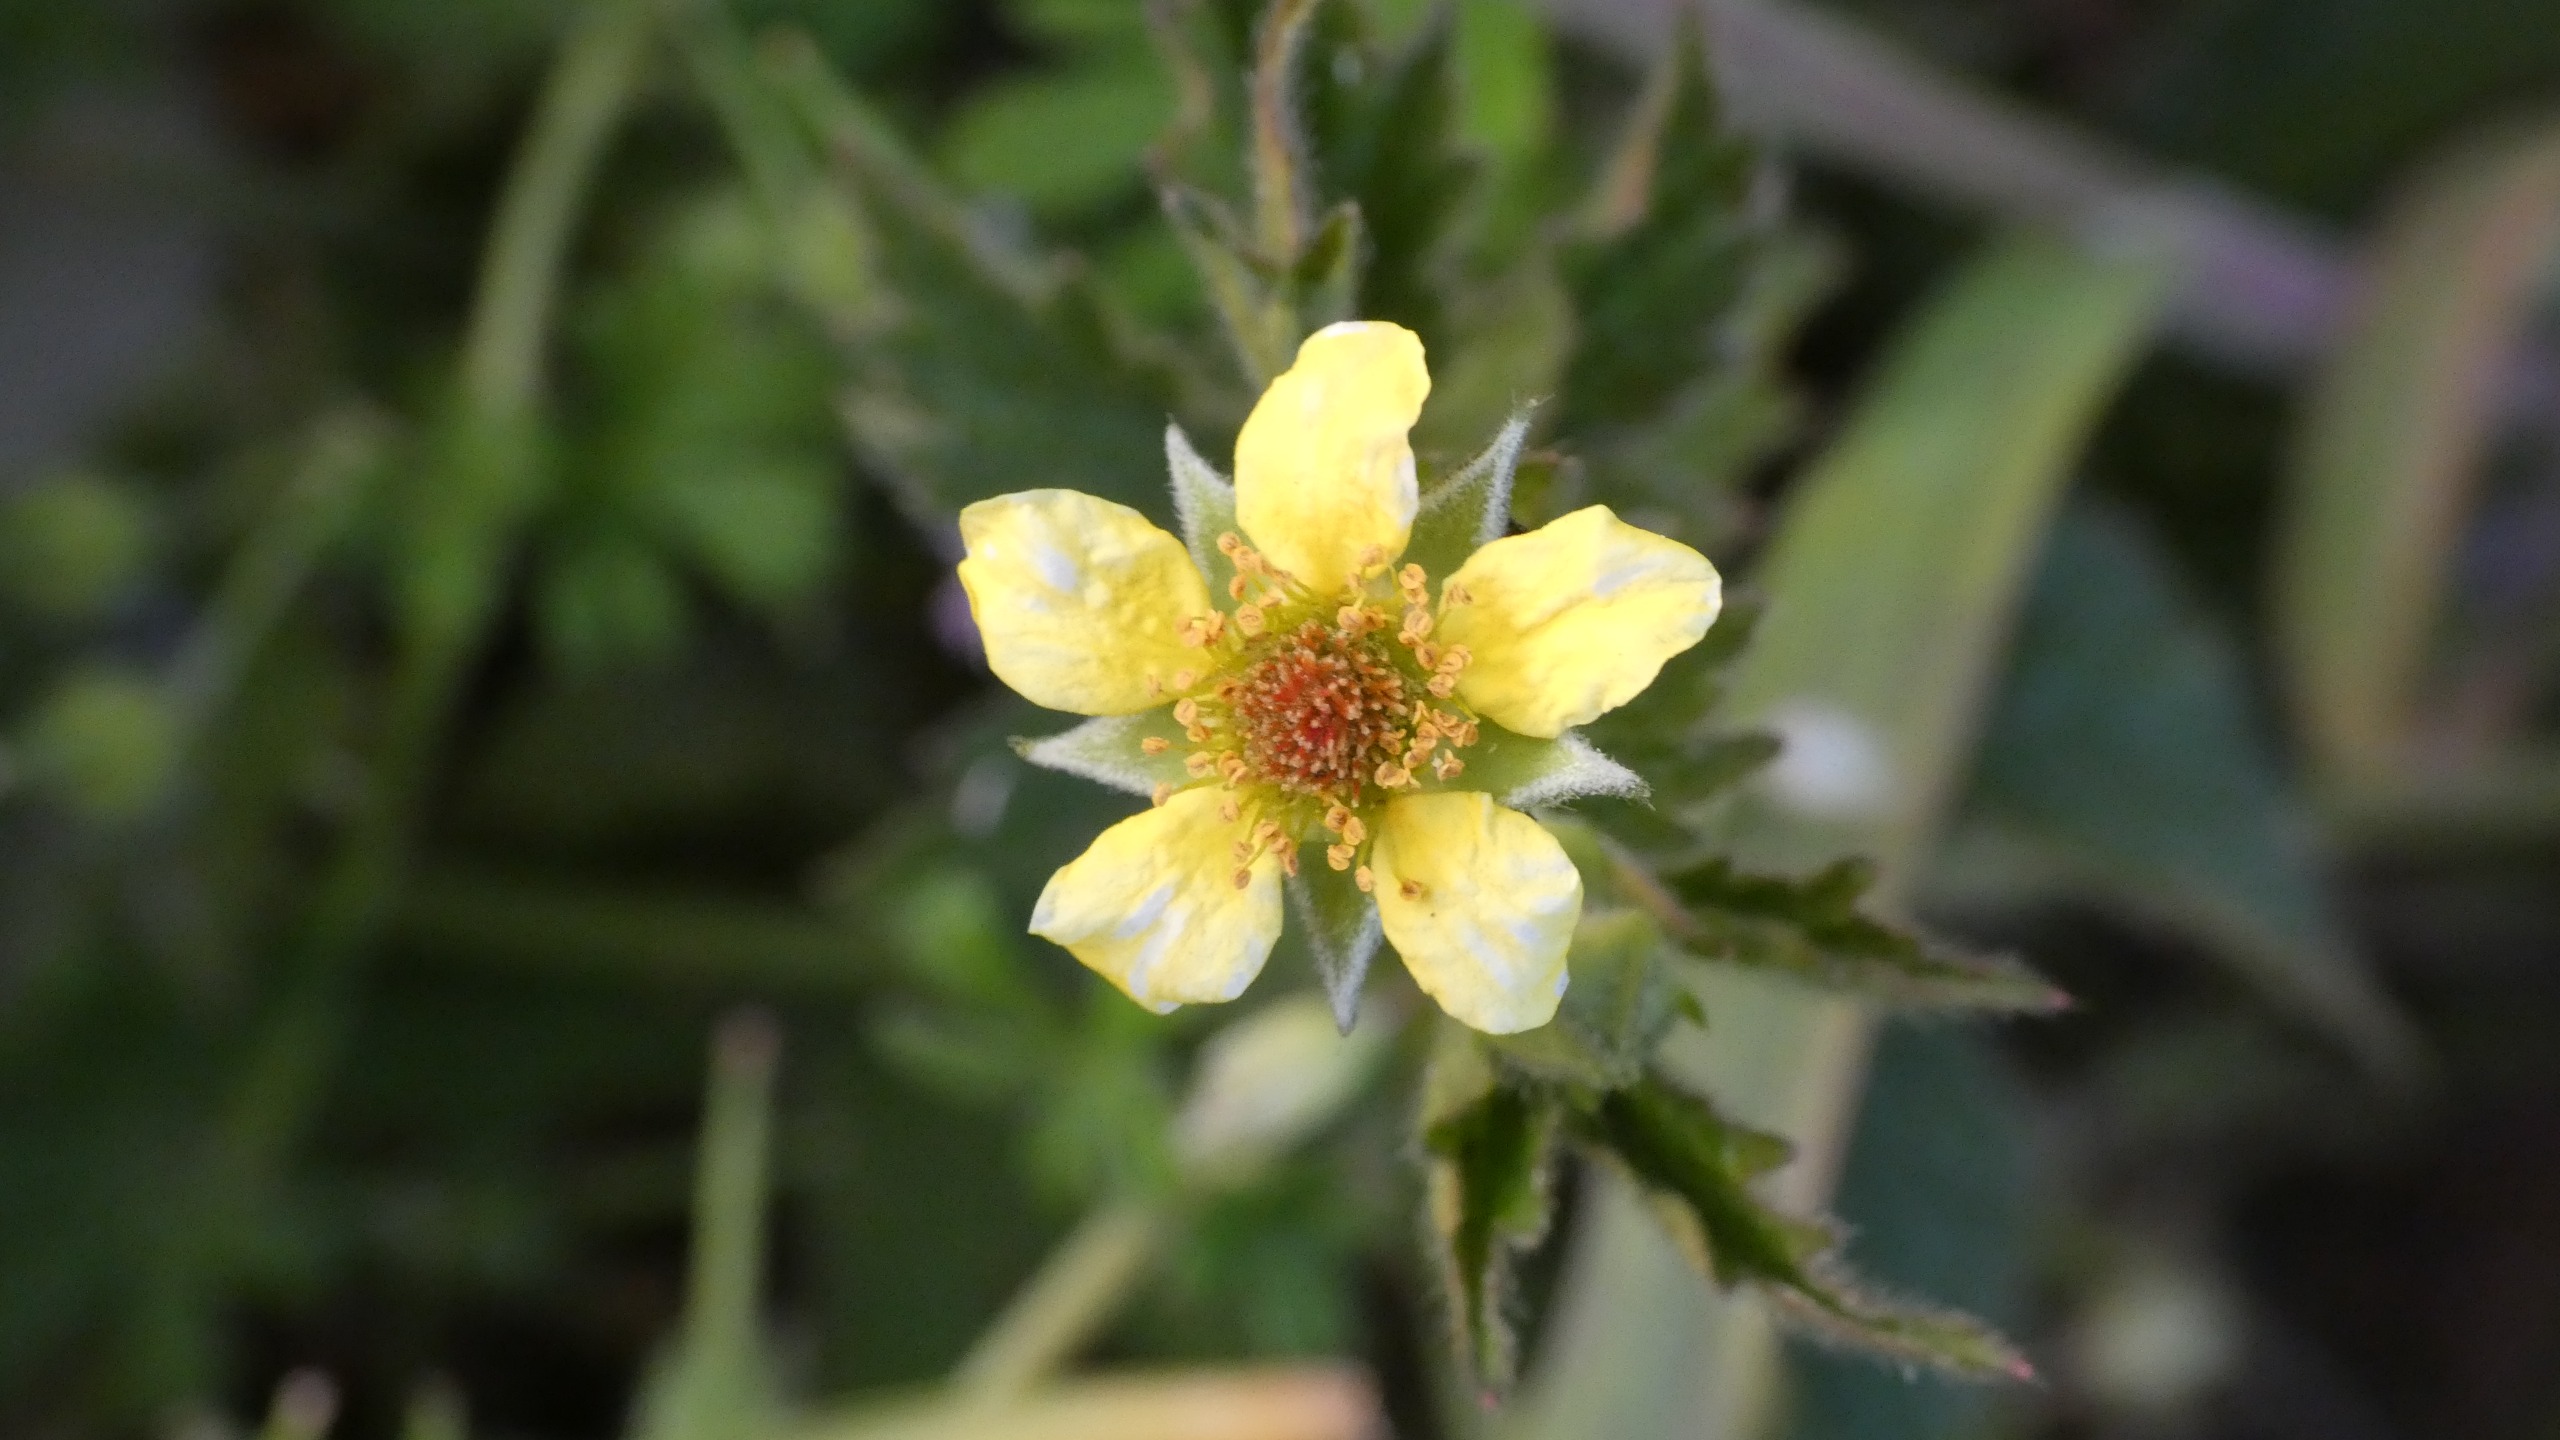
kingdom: Plantae
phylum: Tracheophyta
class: Magnoliopsida
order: Rosales
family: Rosaceae
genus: Geum
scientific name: Geum urbanum
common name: Feber-nellikerod
